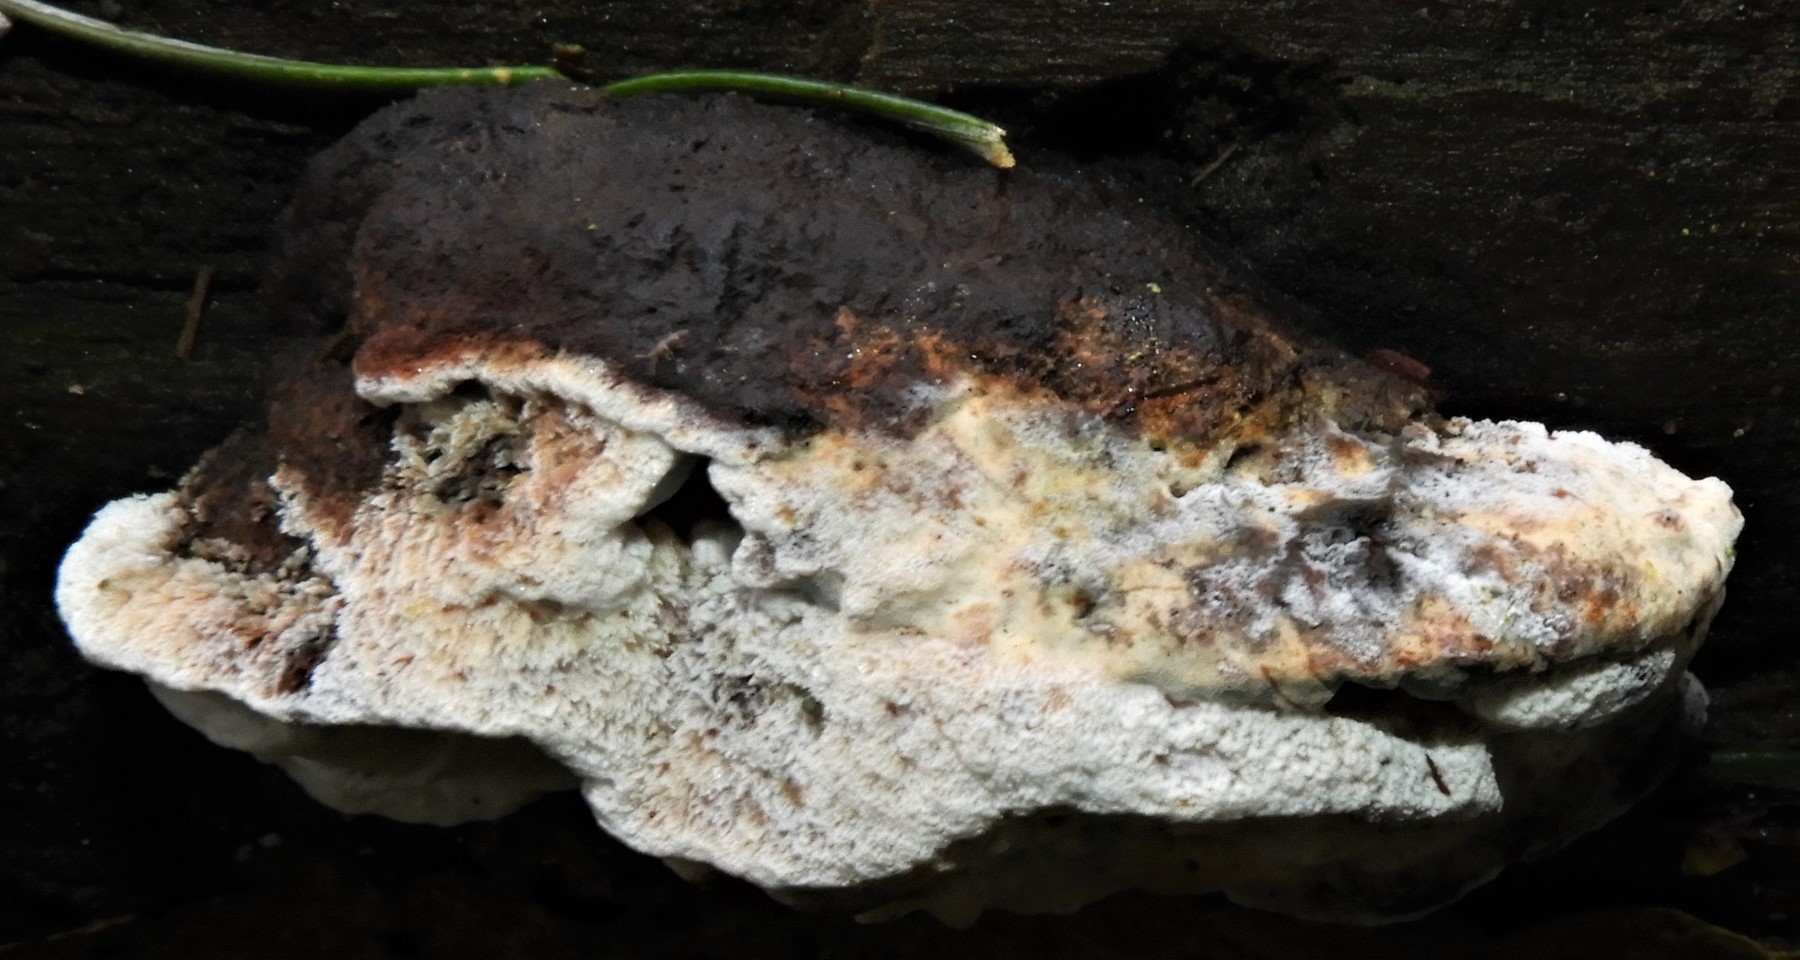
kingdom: Fungi
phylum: Basidiomycota
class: Agaricomycetes
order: Polyporales
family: Incrustoporiaceae
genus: Skeletocutis
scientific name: Skeletocutis nemoralis
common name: stor krystalporesvamp
